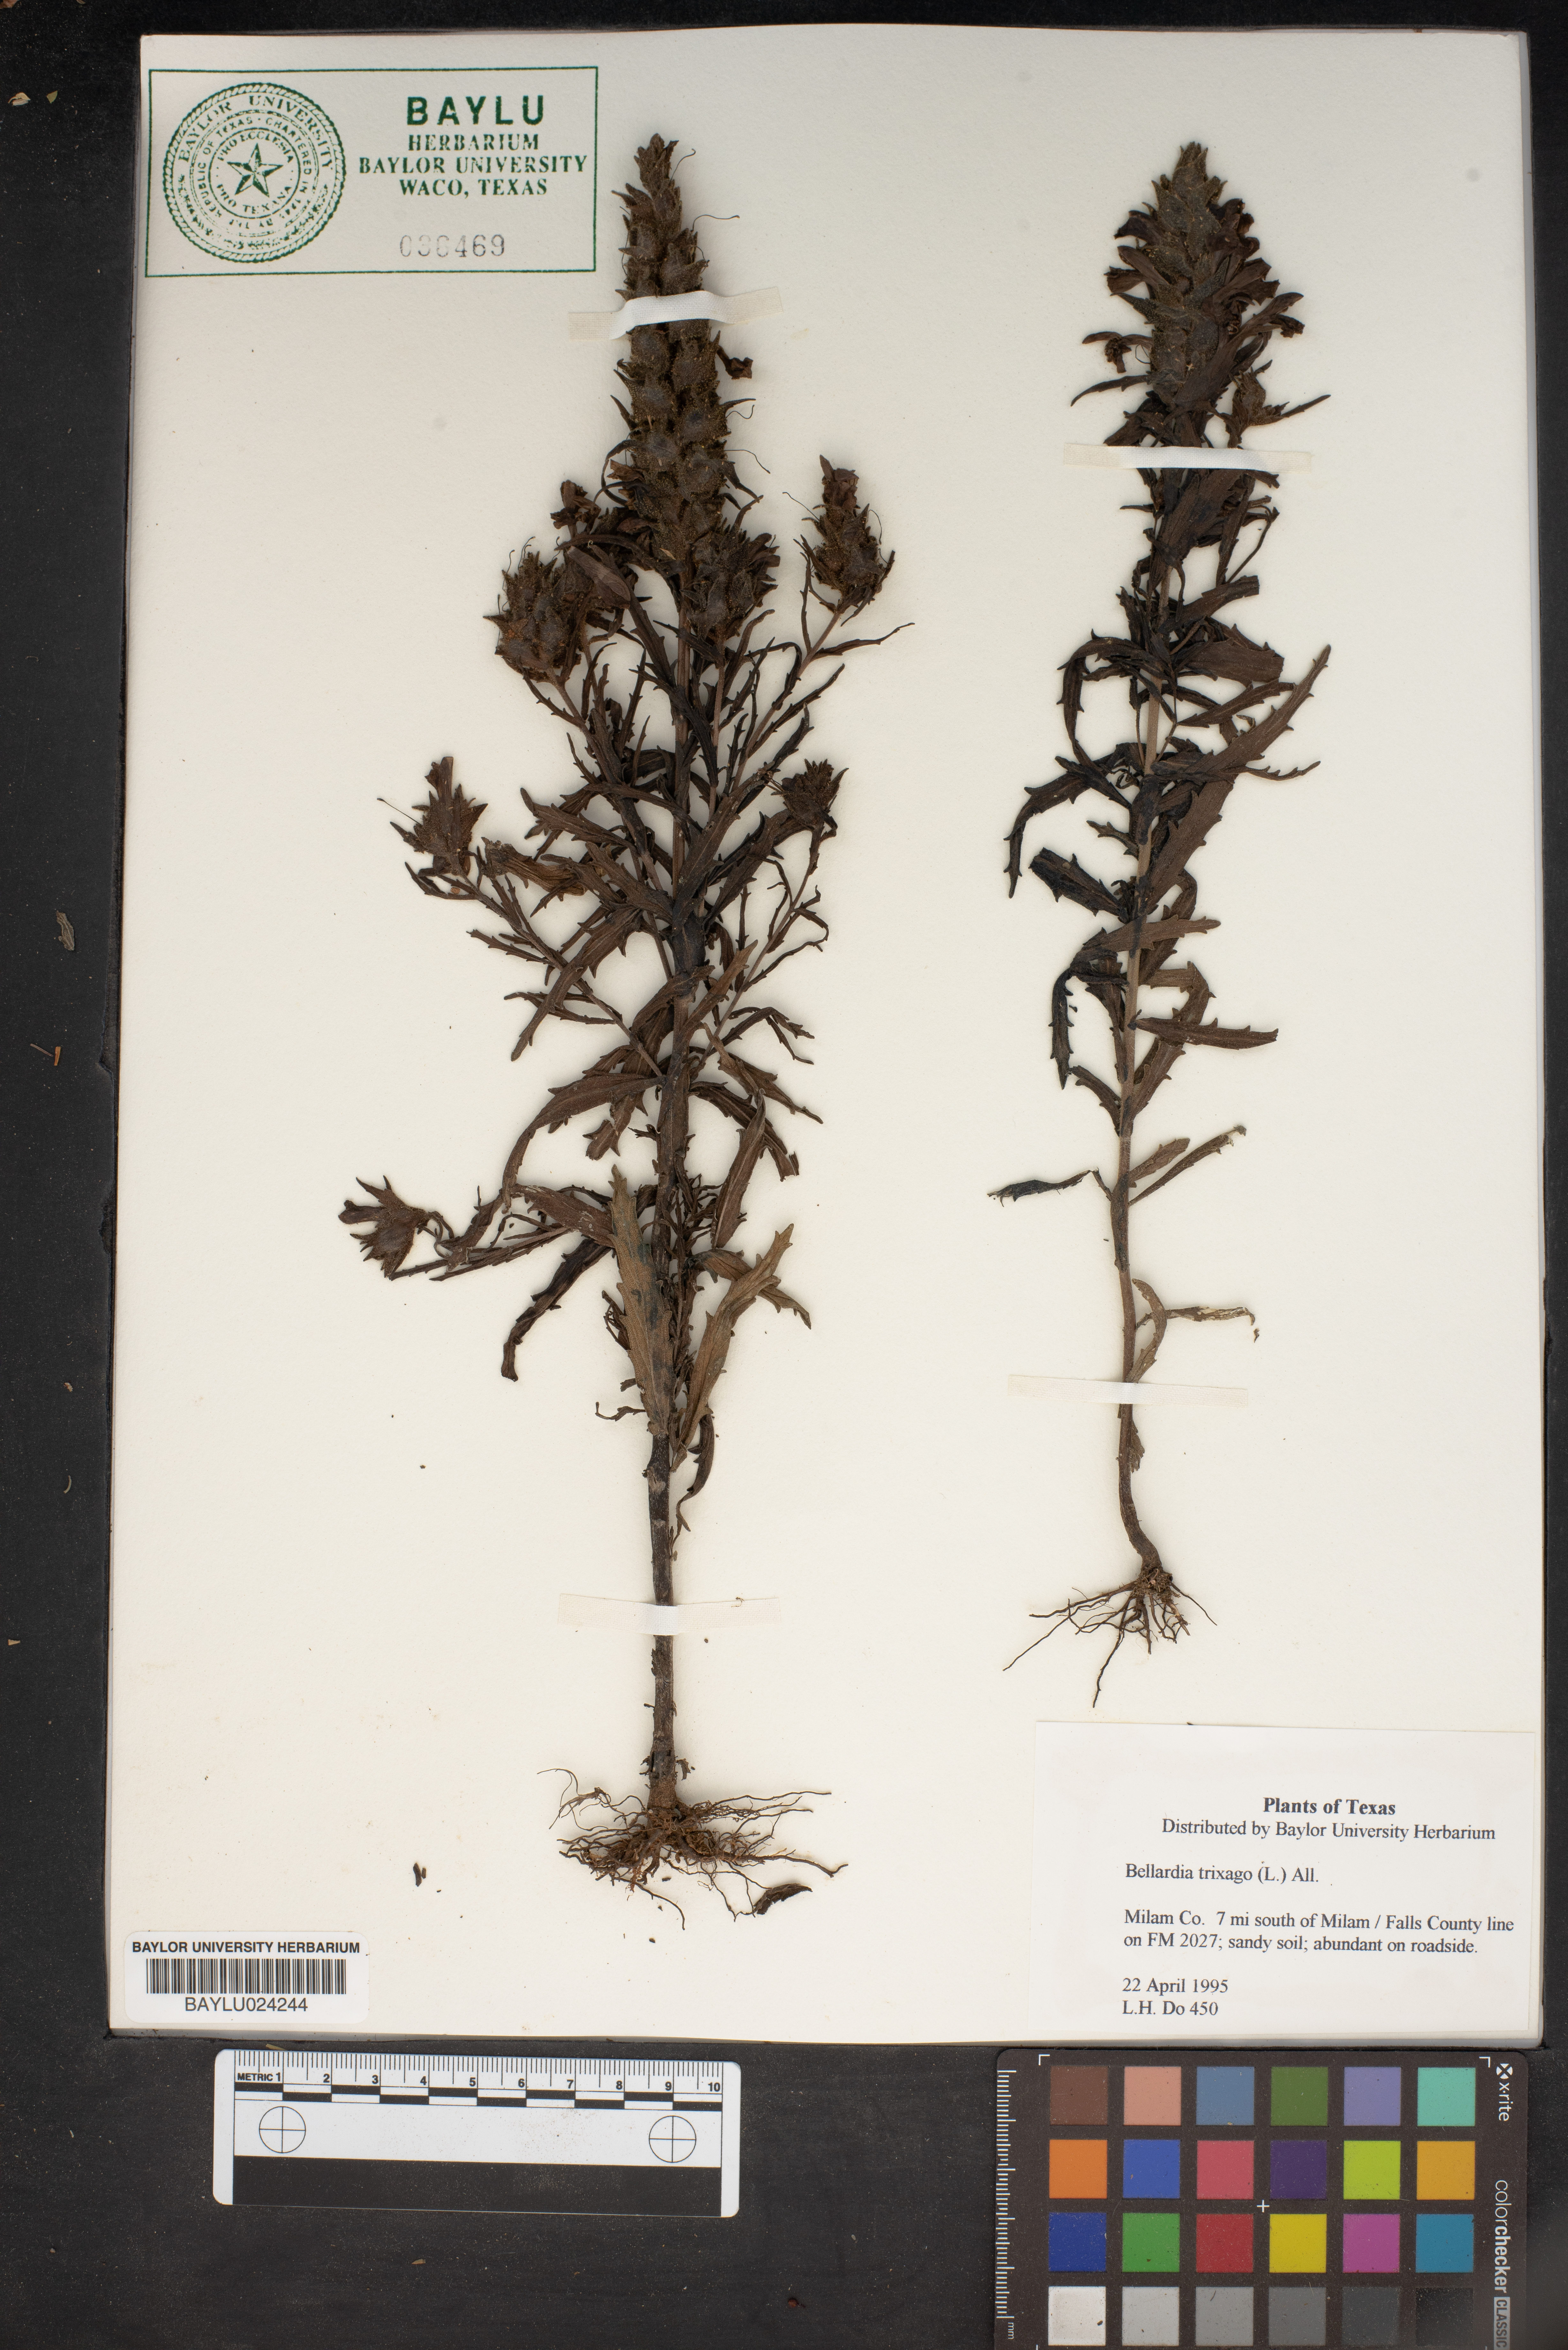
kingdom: Plantae
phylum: Tracheophyta
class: Magnoliopsida
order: Lamiales
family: Orobanchaceae
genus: Bellardia
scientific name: Bellardia trixago
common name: Mediterranean lineseed
